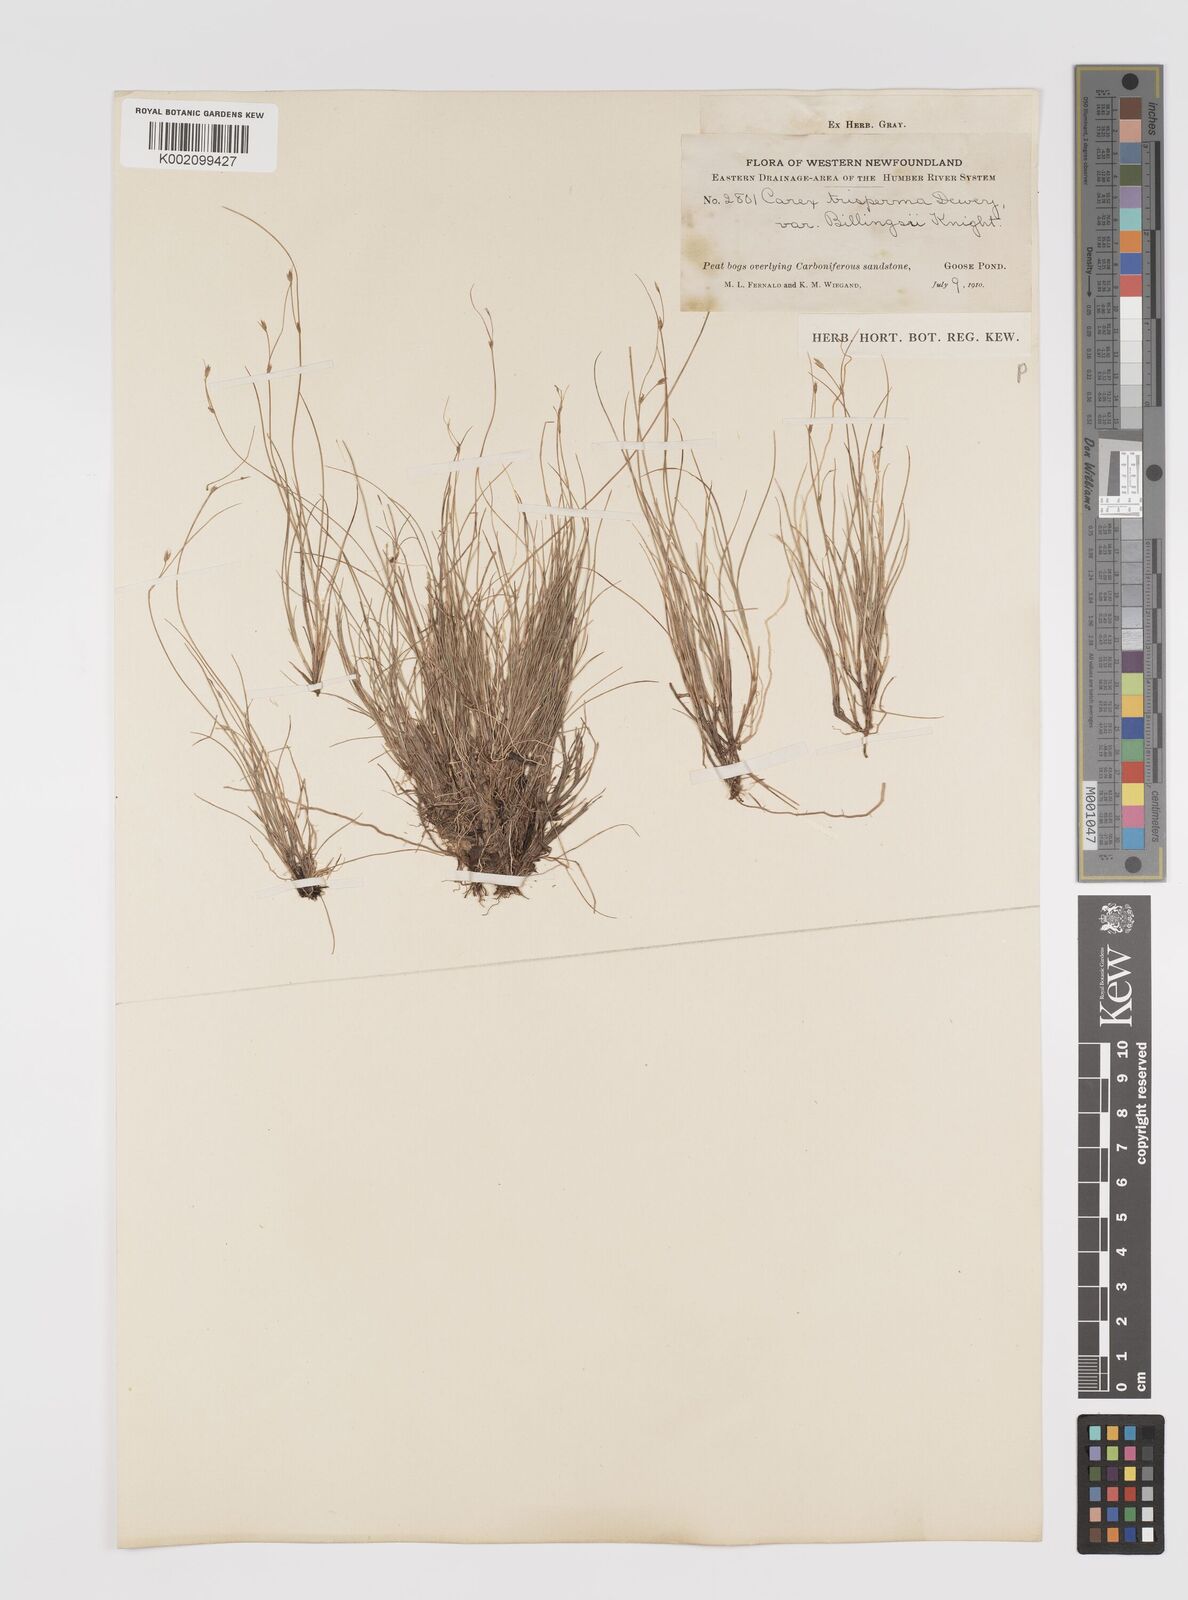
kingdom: Plantae
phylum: Tracheophyta
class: Liliopsida
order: Poales
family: Cyperaceae
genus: Carex
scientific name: Carex trisperma
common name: Three-seeded sedge
